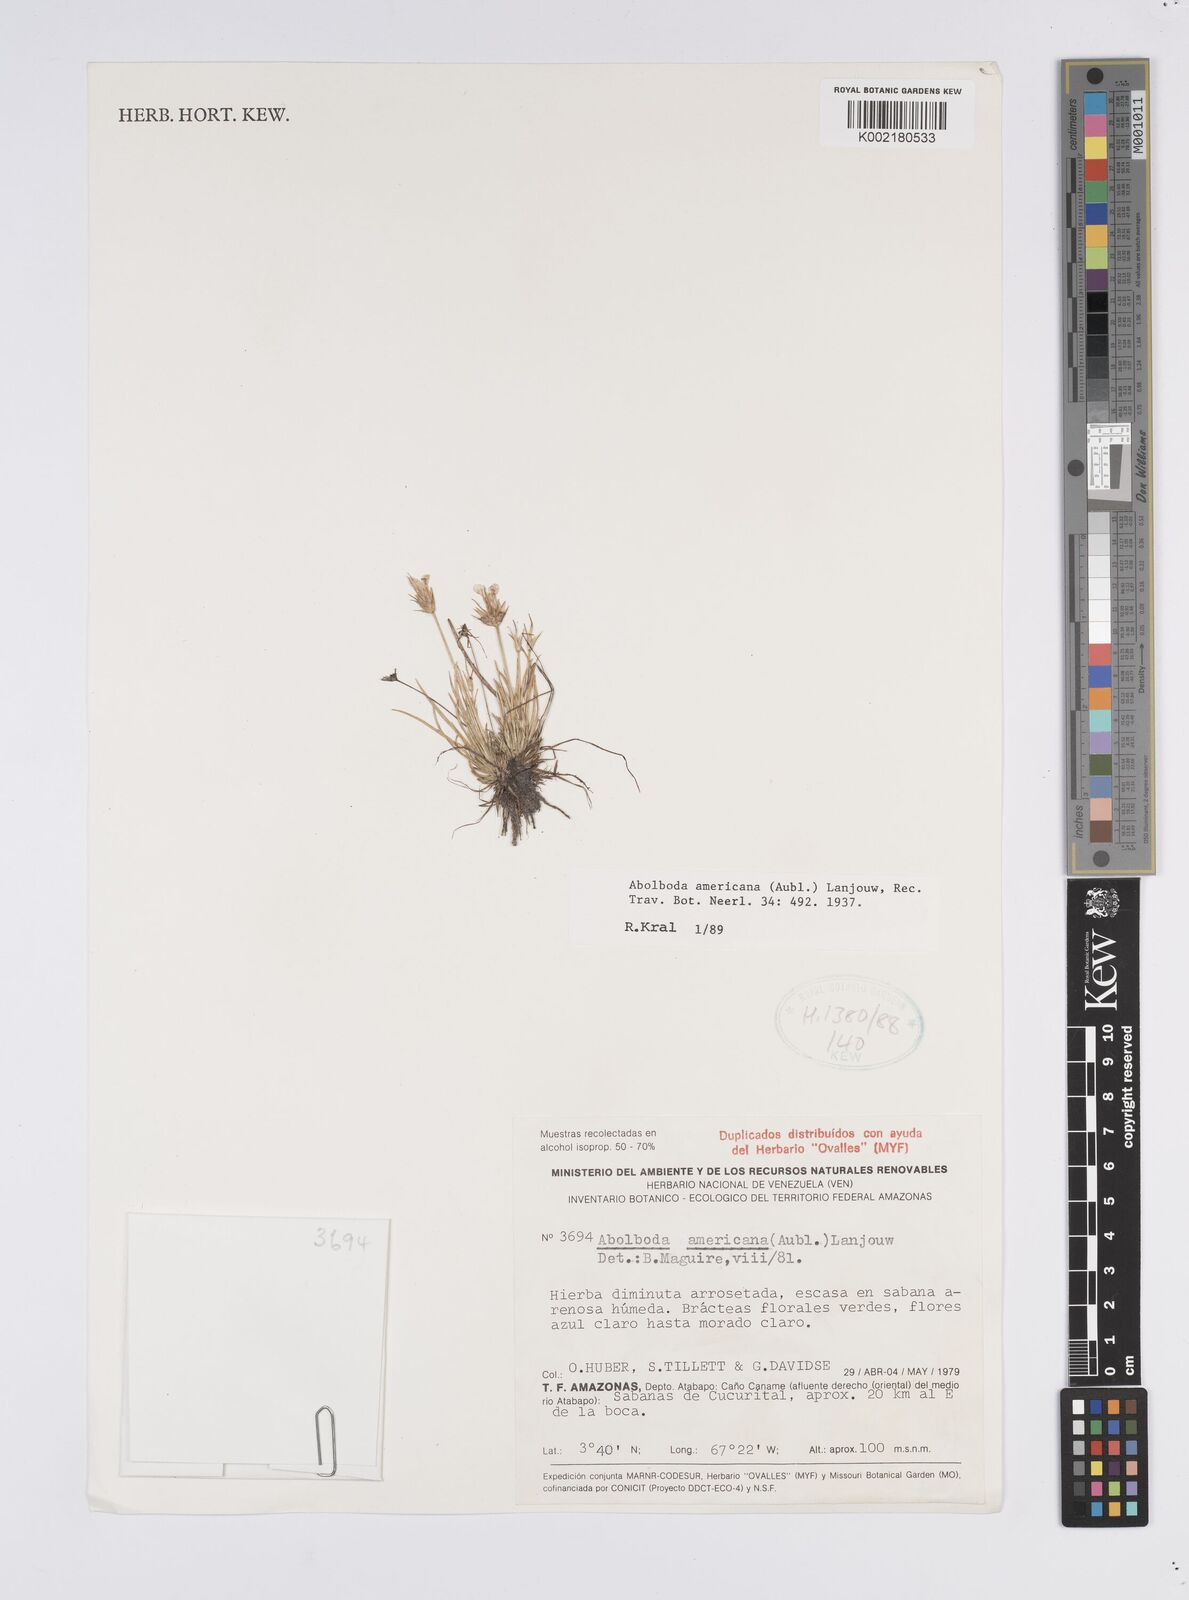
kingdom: Plantae
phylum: Tracheophyta
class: Liliopsida
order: Poales
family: Xyridaceae
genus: Abolboda
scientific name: Abolboda americana
